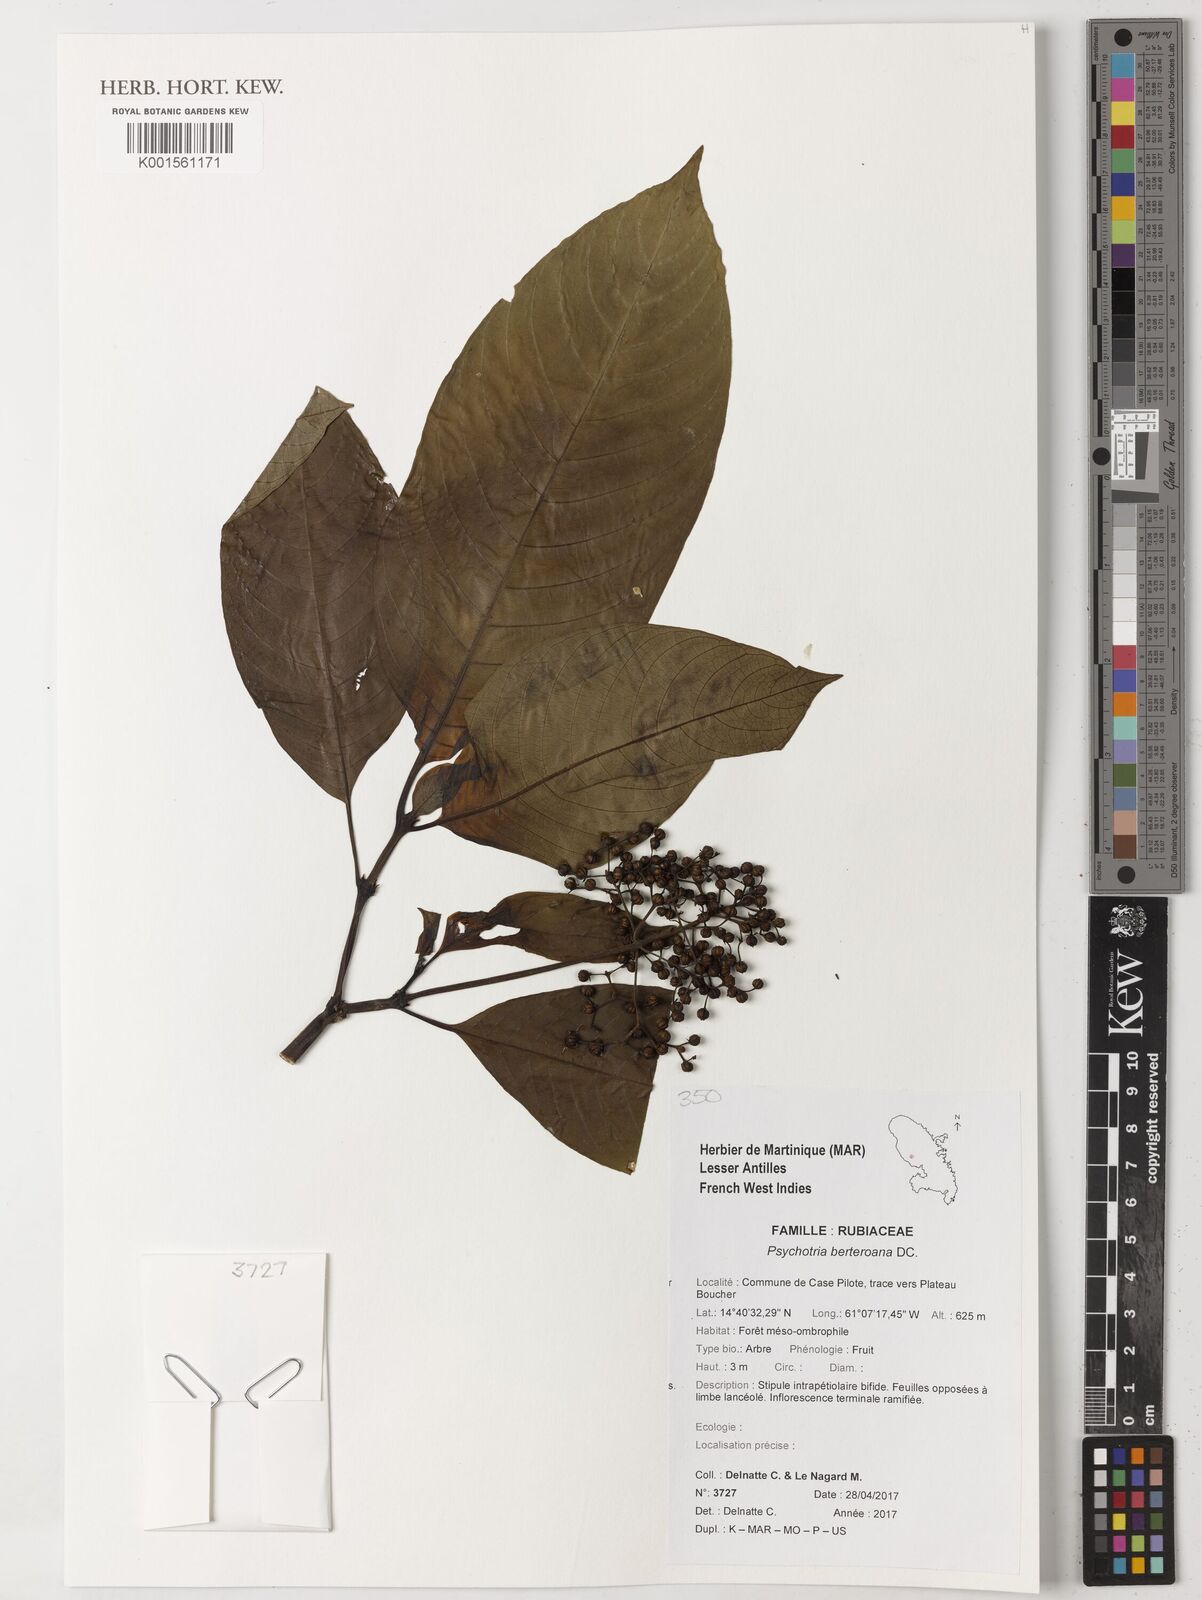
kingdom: Plantae
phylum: Tracheophyta
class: Magnoliopsida
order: Gentianales
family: Rubiaceae
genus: Palicourea
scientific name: Palicourea berteroana
